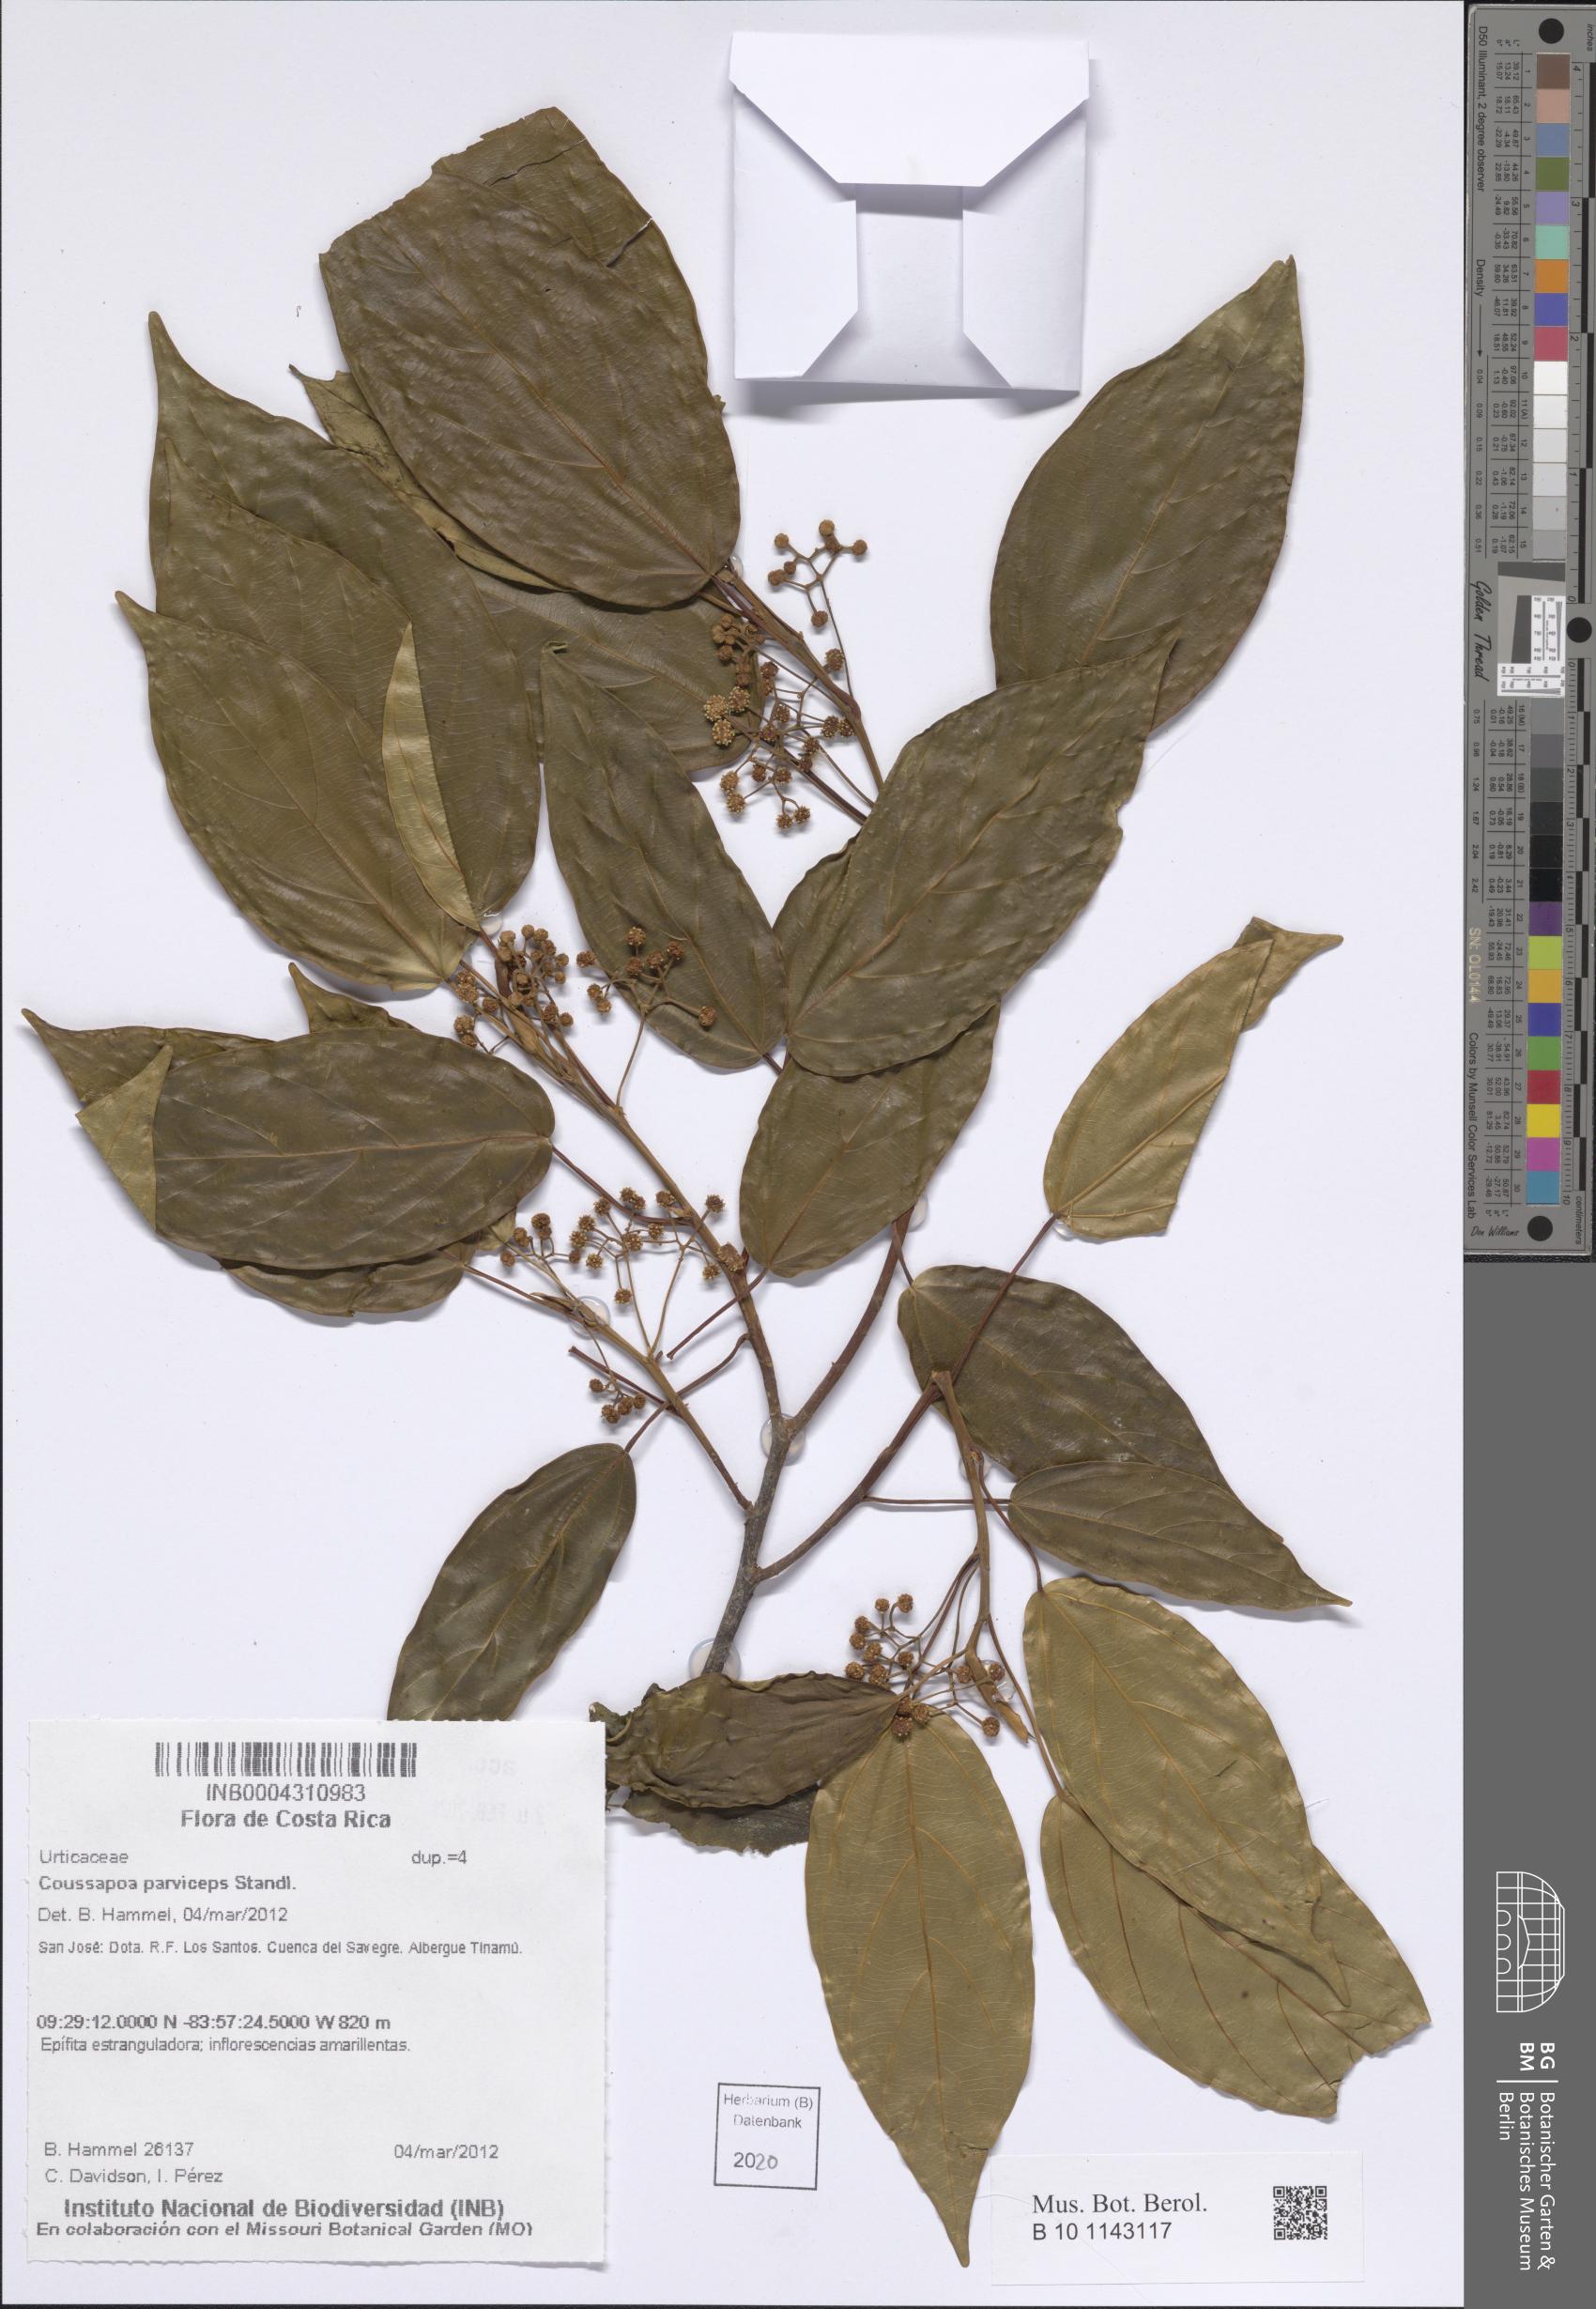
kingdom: Plantae
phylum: Tracheophyta
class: Magnoliopsida
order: Rosales
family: Urticaceae
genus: Coussapoa
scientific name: Coussapoa parviceps
